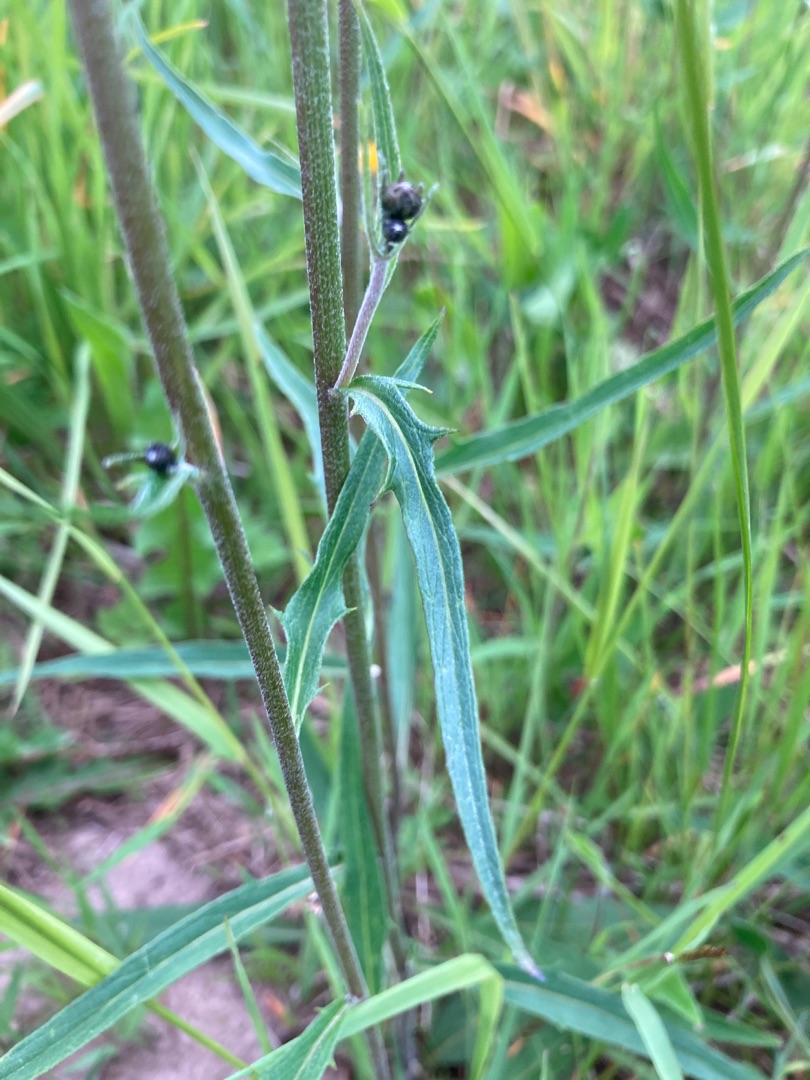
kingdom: Plantae
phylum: Tracheophyta
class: Magnoliopsida
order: Asterales
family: Asteraceae
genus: Hieracium
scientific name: Hieracium rebildense
